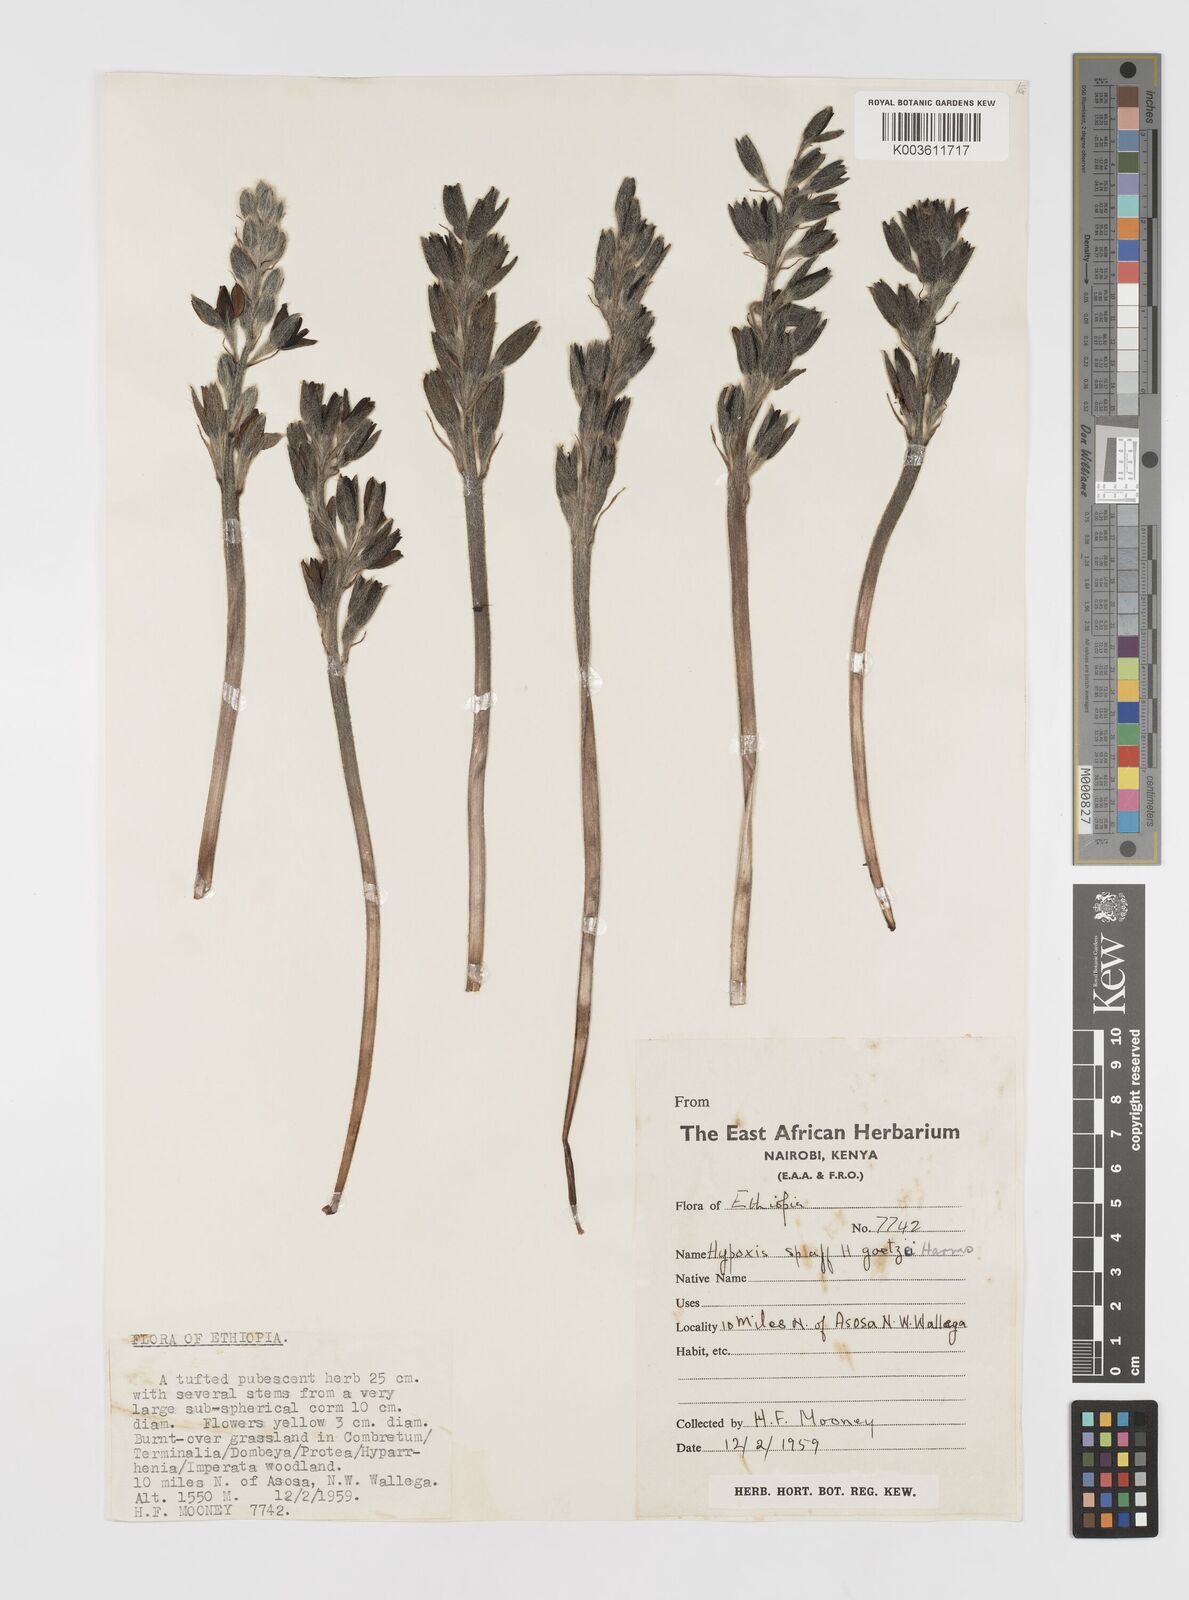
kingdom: Plantae
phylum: Tracheophyta
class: Liliopsida
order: Asparagales
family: Hypoxidaceae
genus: Hypoxis
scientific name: Hypoxis fischeri
